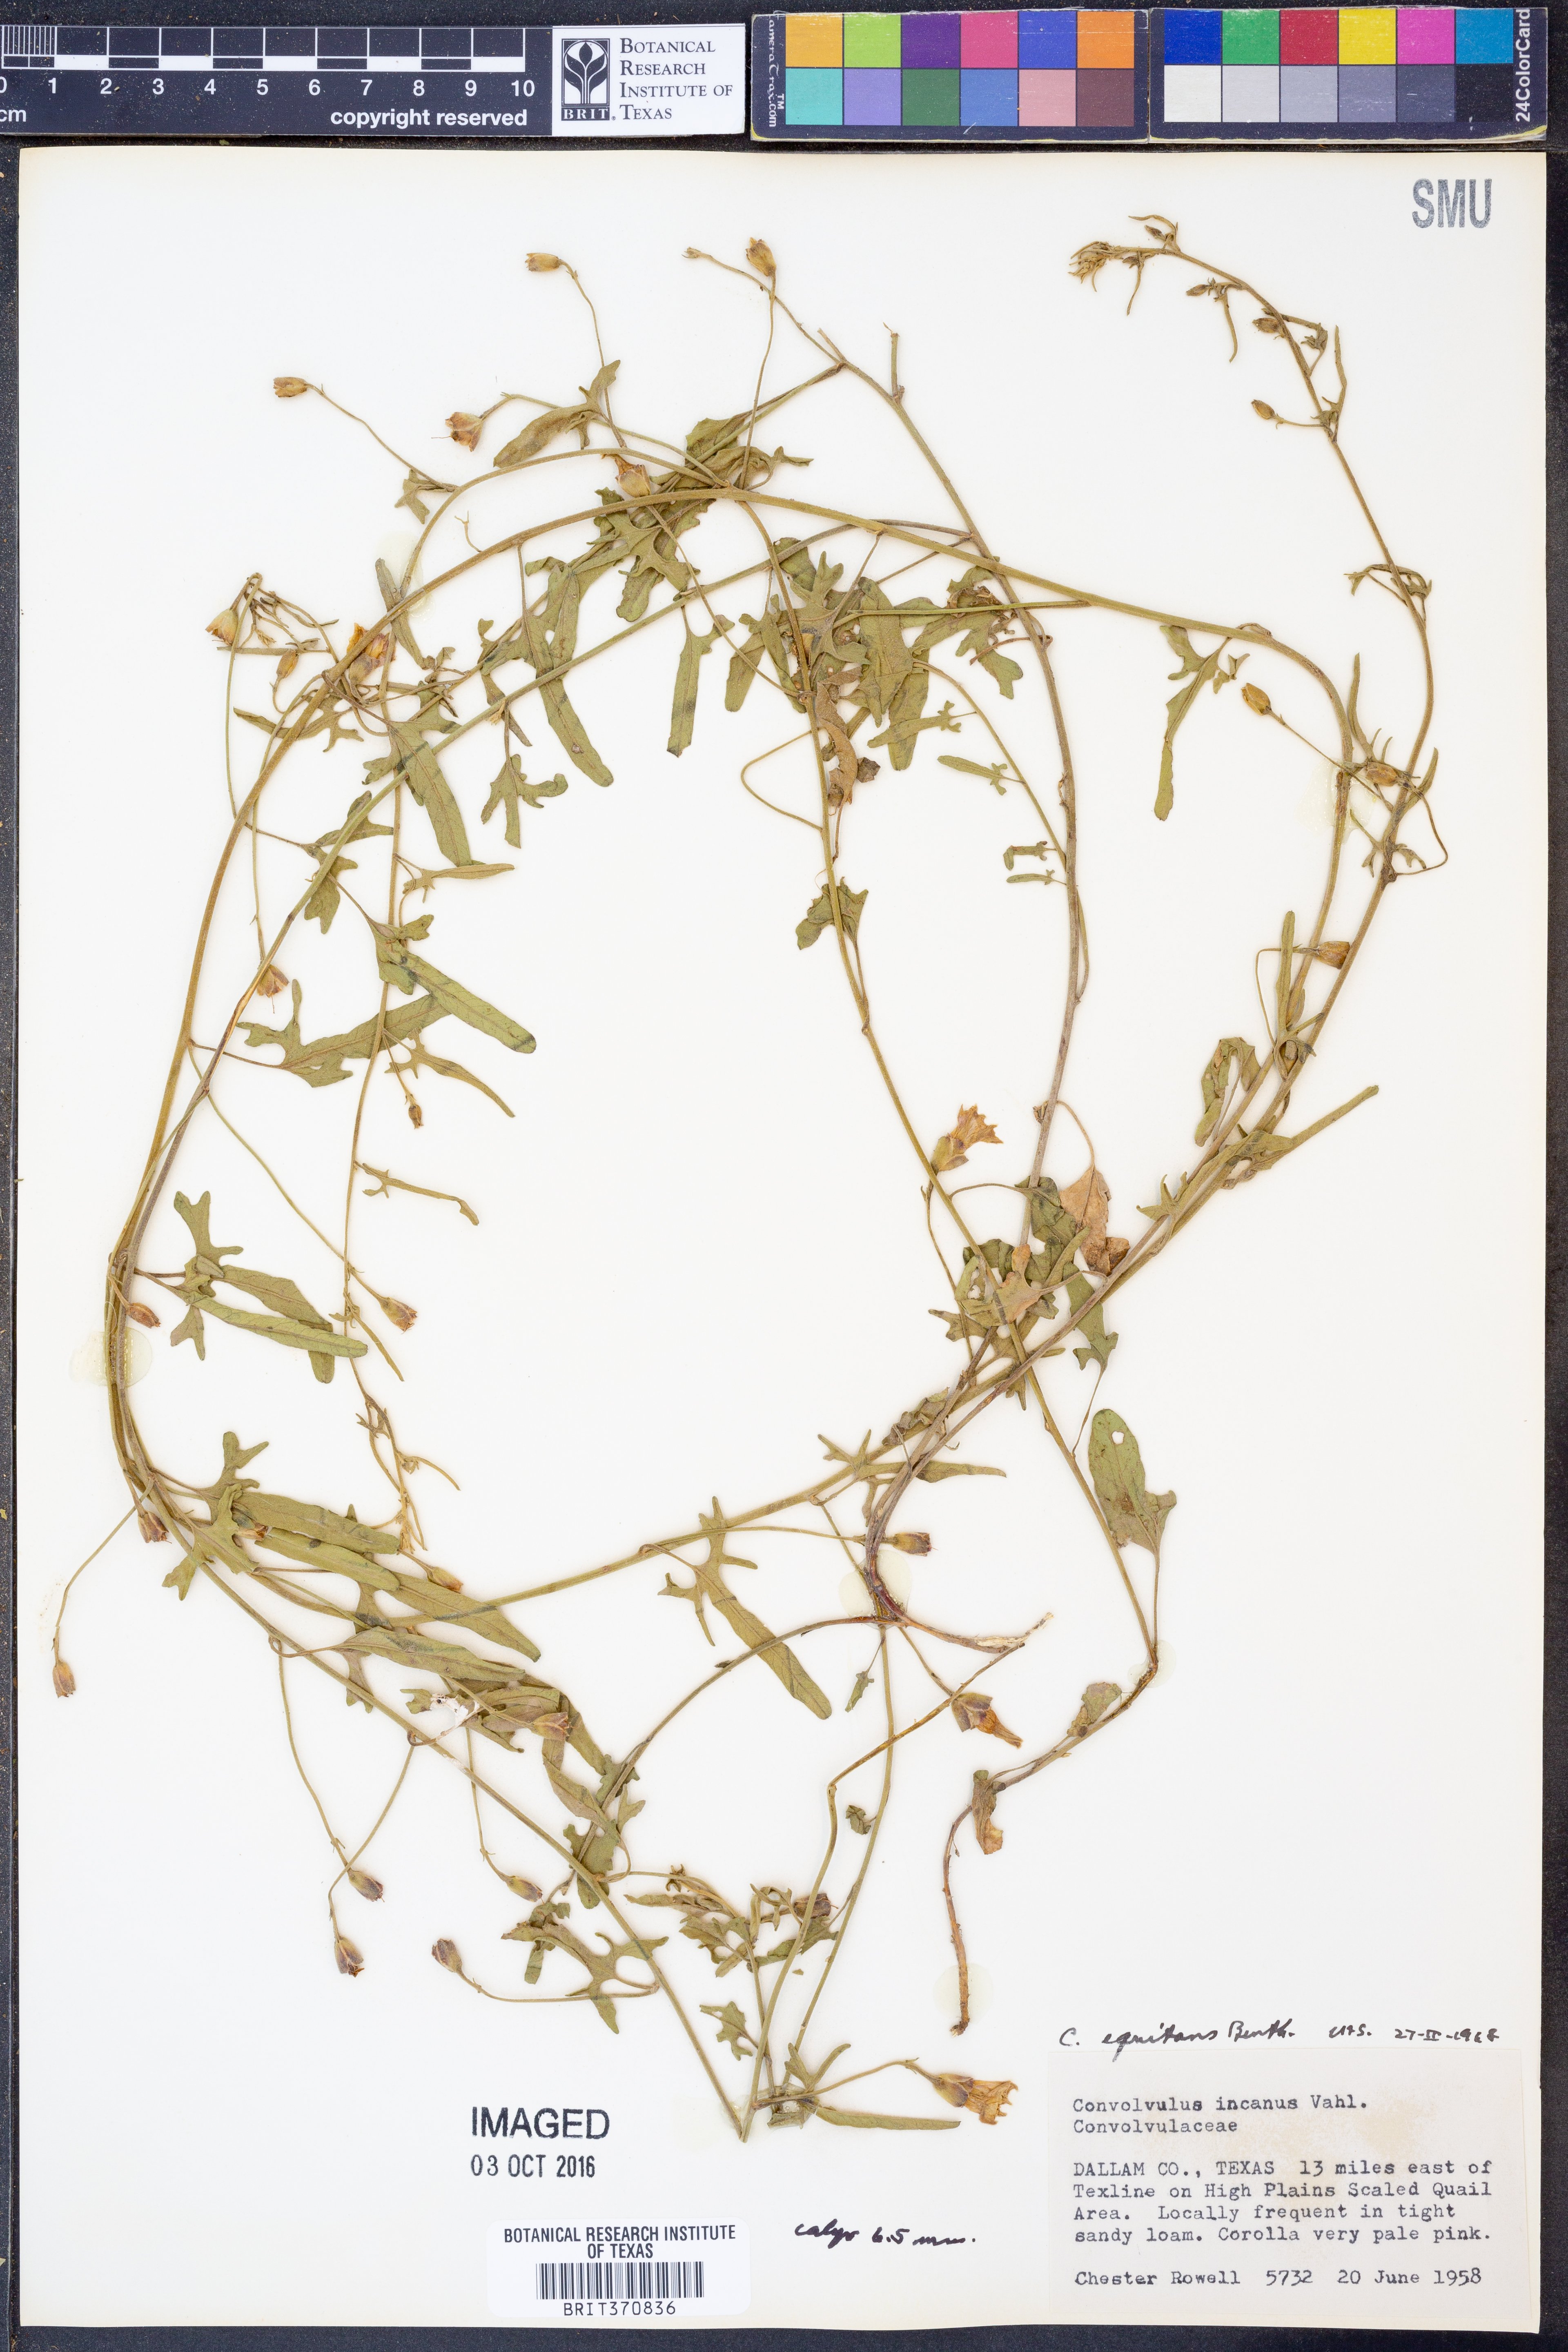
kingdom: Plantae
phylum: Tracheophyta
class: Magnoliopsida
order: Solanales
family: Convolvulaceae
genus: Convolvulus
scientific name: Convolvulus equitans
